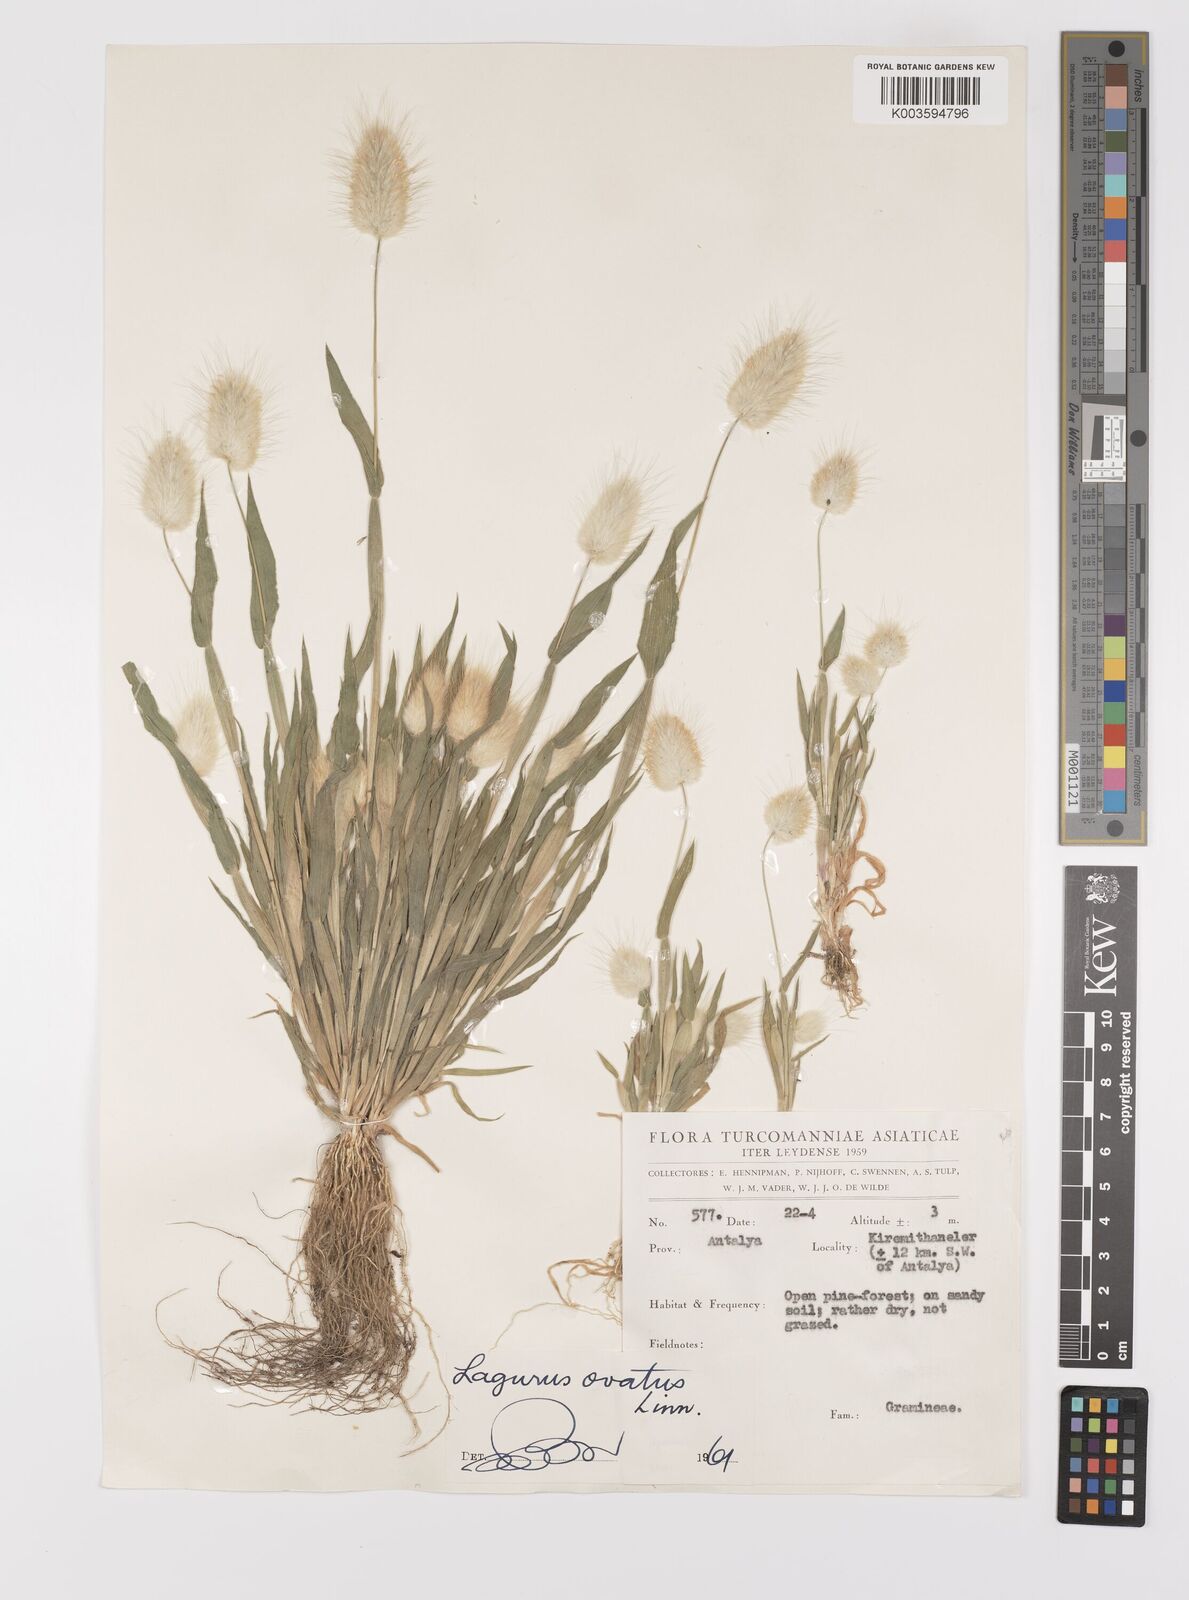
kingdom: Plantae
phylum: Tracheophyta
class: Liliopsida
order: Poales
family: Poaceae
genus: Lagurus
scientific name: Lagurus ovatus
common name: Hare's-tail
